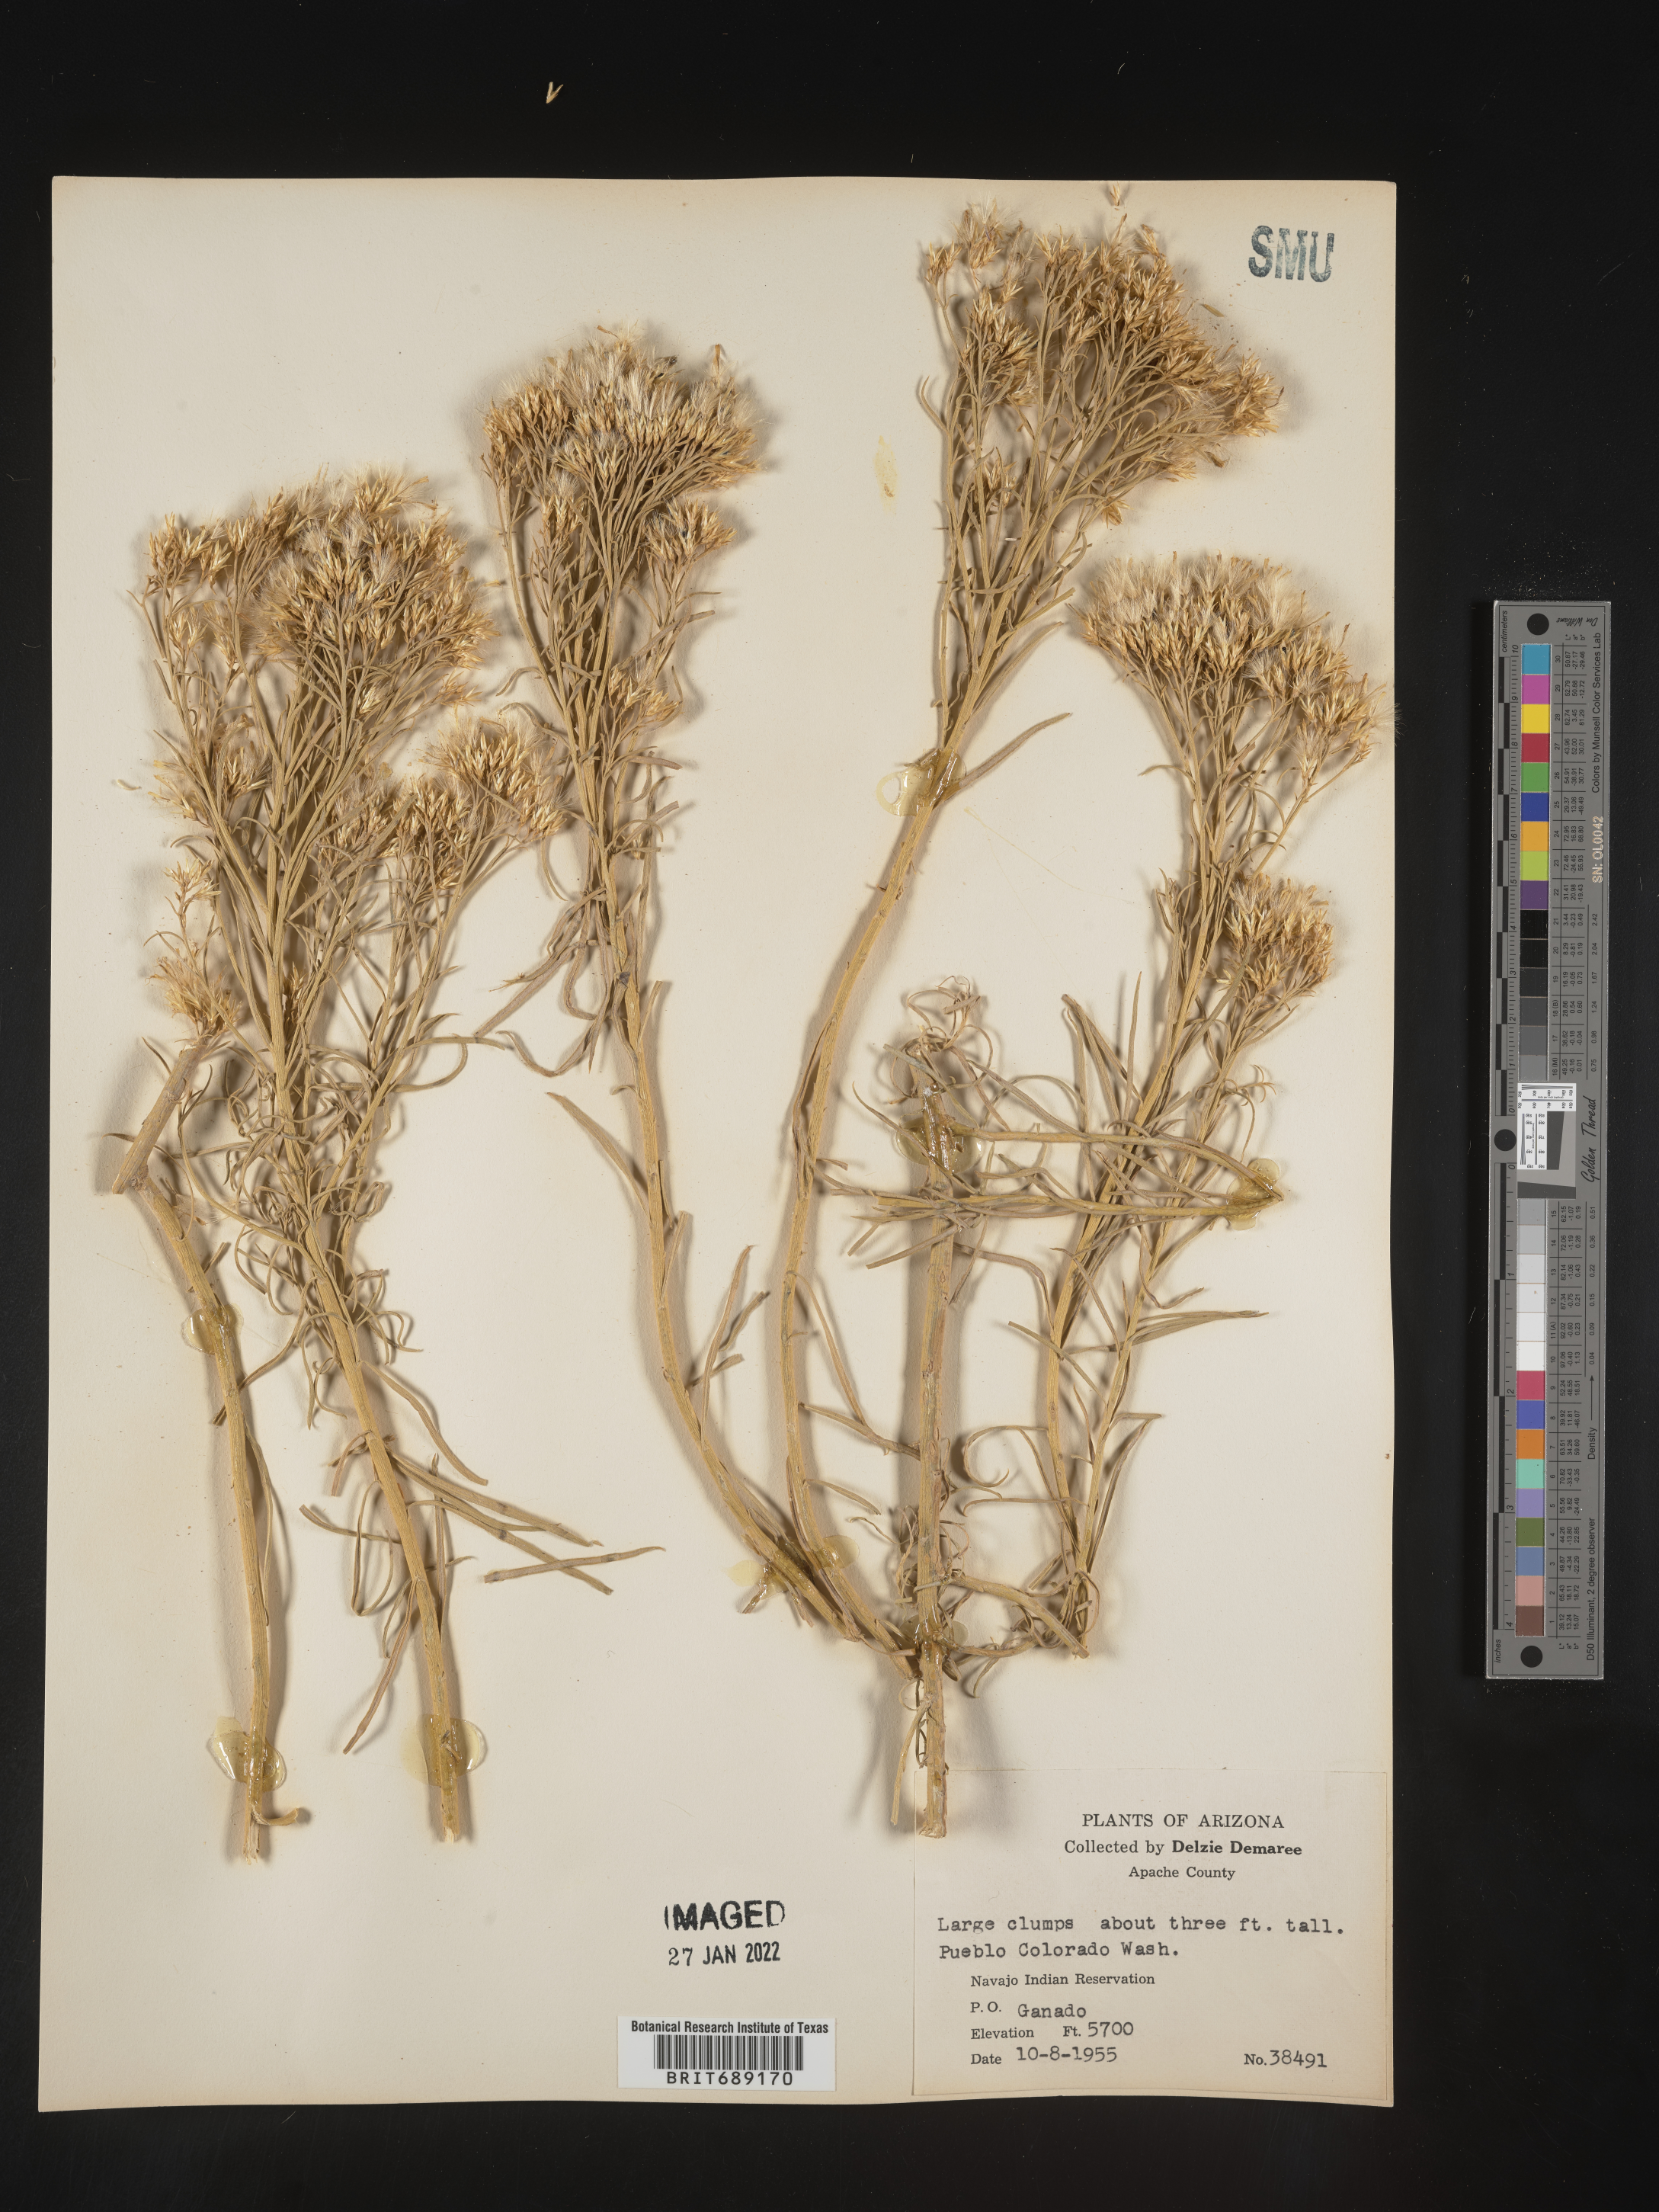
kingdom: Plantae
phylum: Tracheophyta
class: Magnoliopsida
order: Asterales
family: Asteraceae
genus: Chrysothamnus
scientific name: Chrysothamnus
